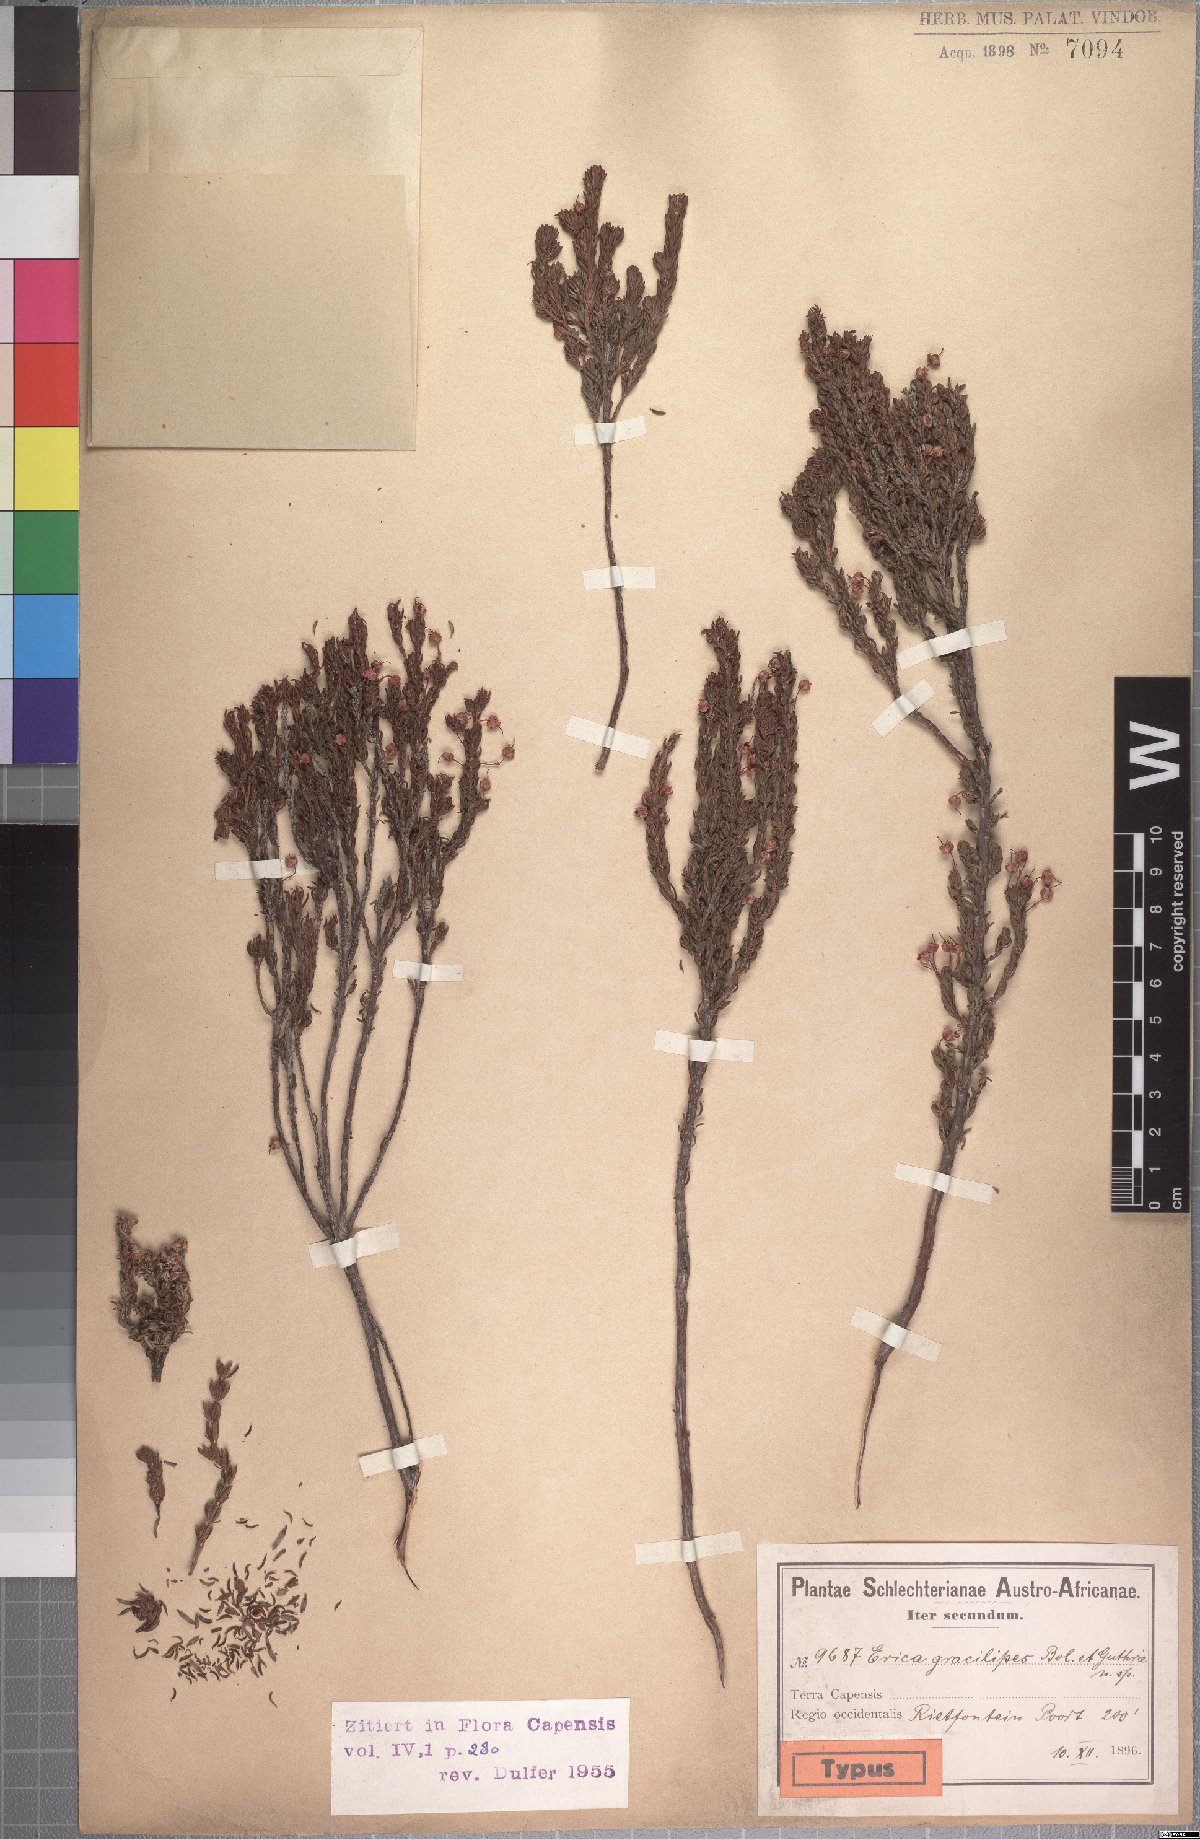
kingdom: Plantae
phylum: Tracheophyta
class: Magnoliopsida
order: Ericales
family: Ericaceae
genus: Erica
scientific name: Erica gracilipes
